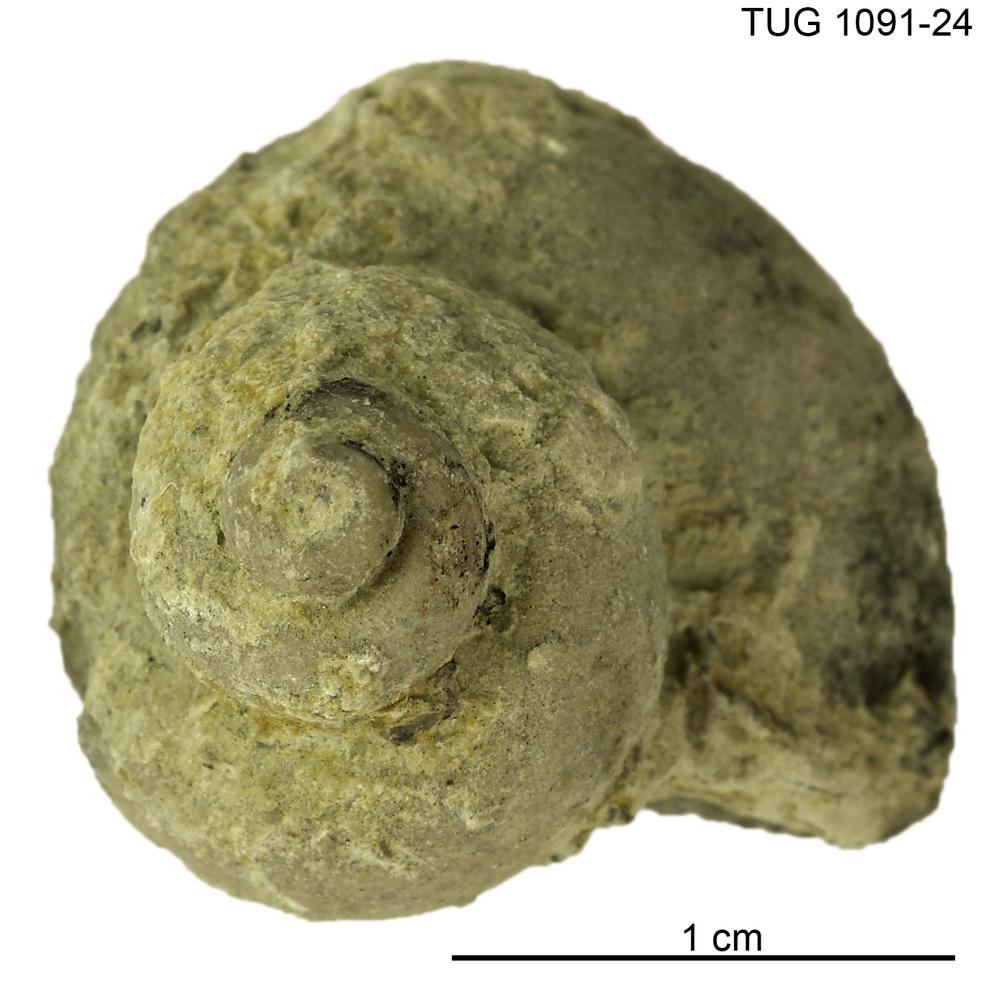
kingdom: Animalia
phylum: Mollusca
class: Gastropoda
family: Platyceratidae
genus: Naticonema
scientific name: Naticonema
